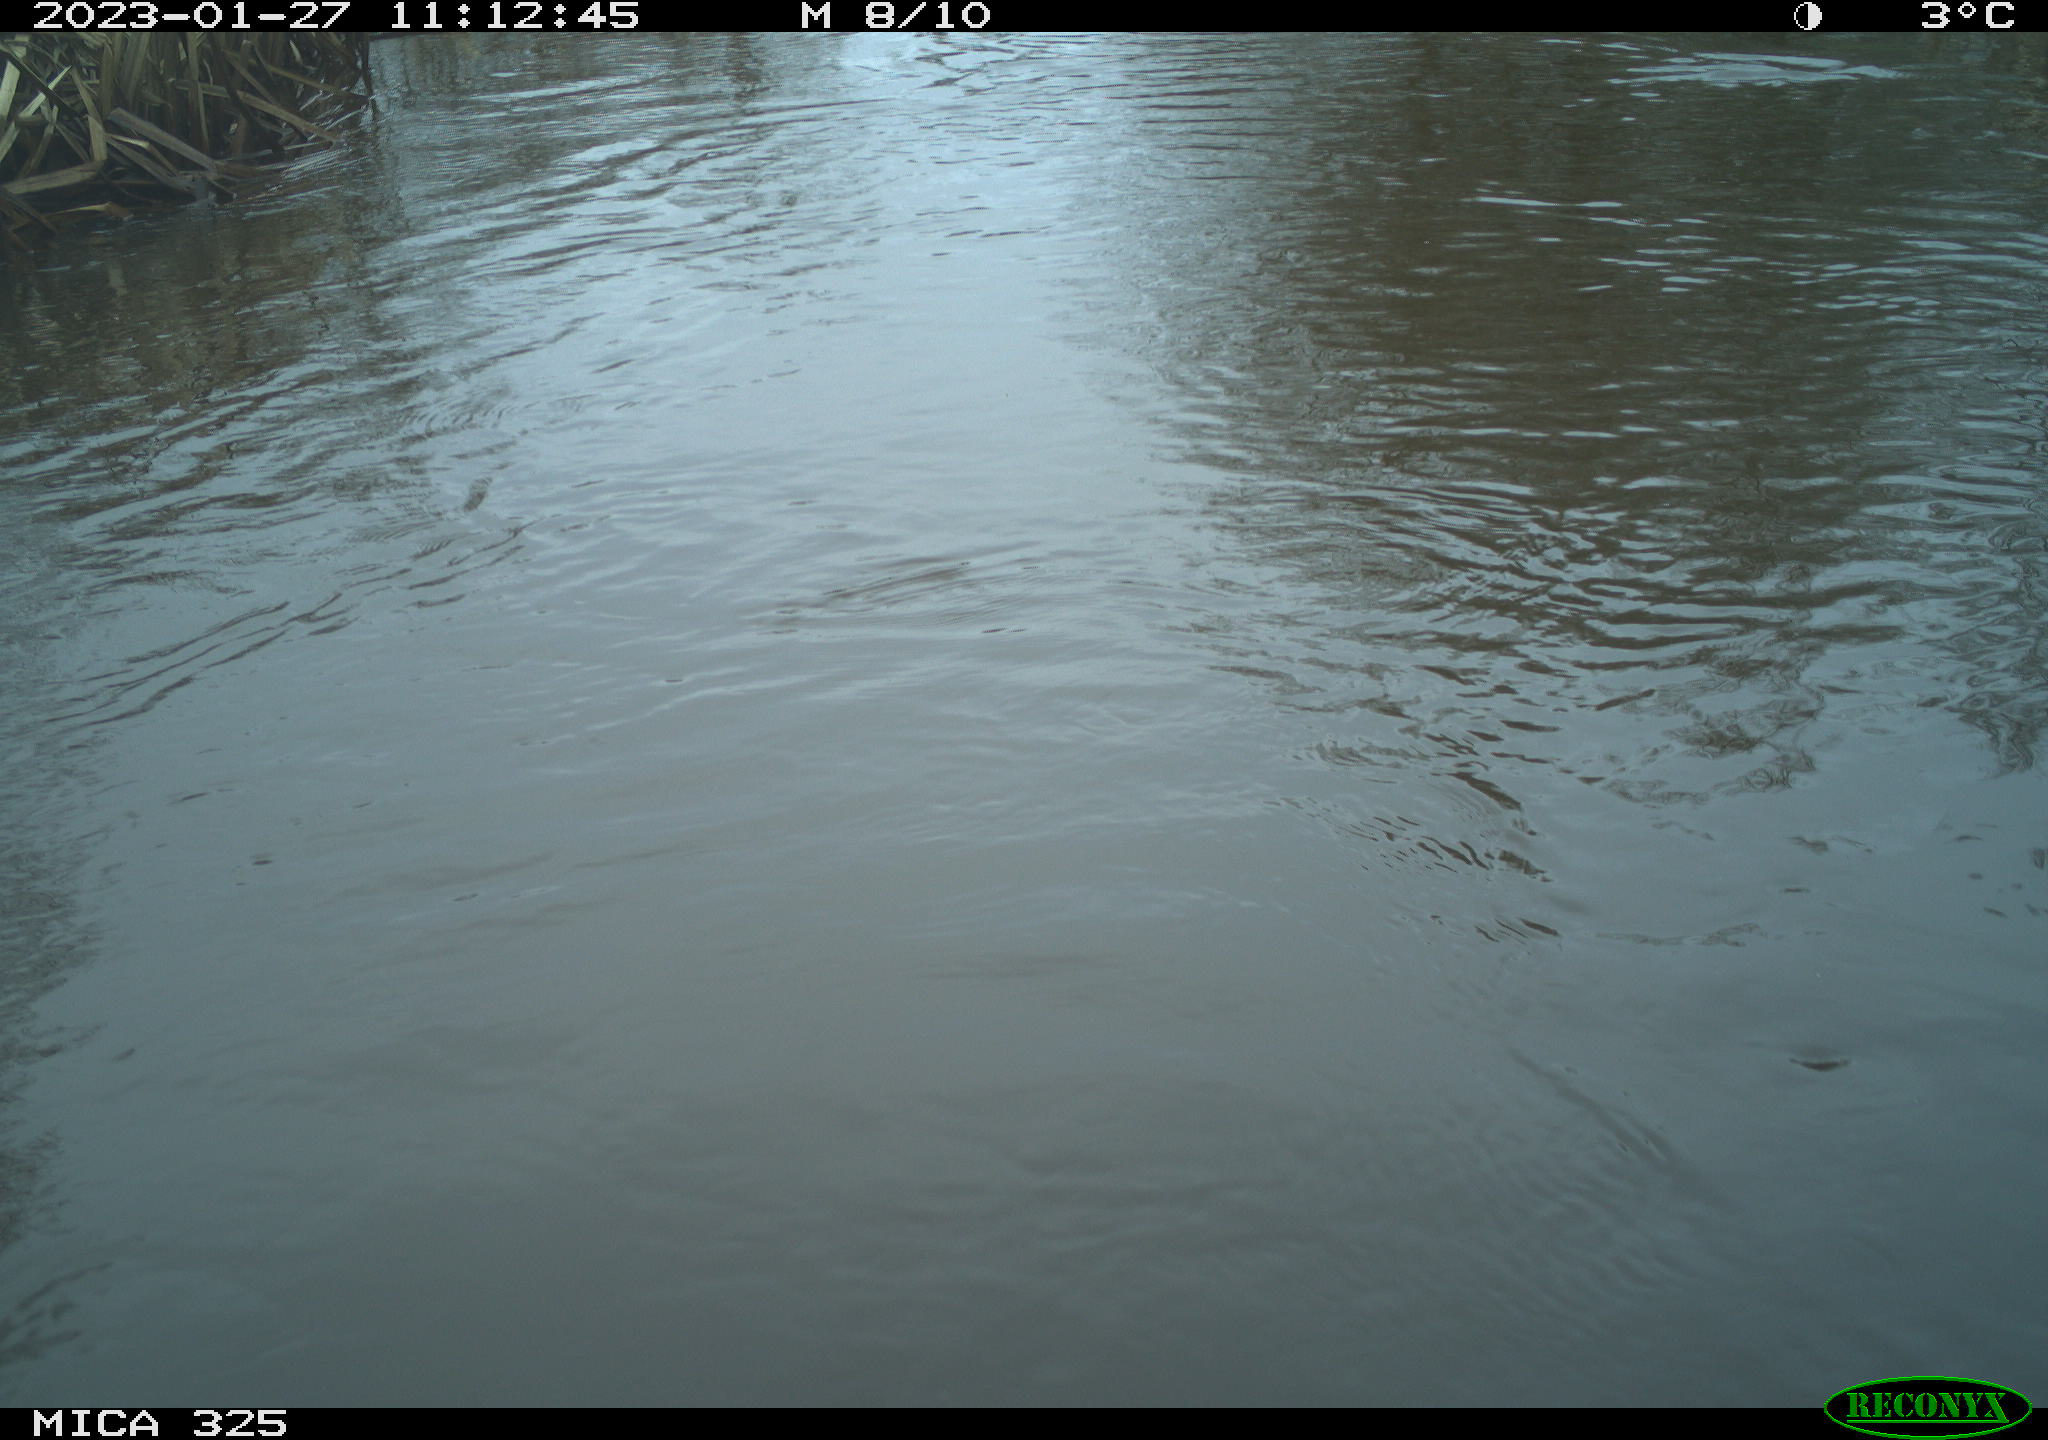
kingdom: Animalia
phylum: Chordata
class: Mammalia
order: Rodentia
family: Cricetidae
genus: Ondatra
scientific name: Ondatra zibethicus
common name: Muskrat
